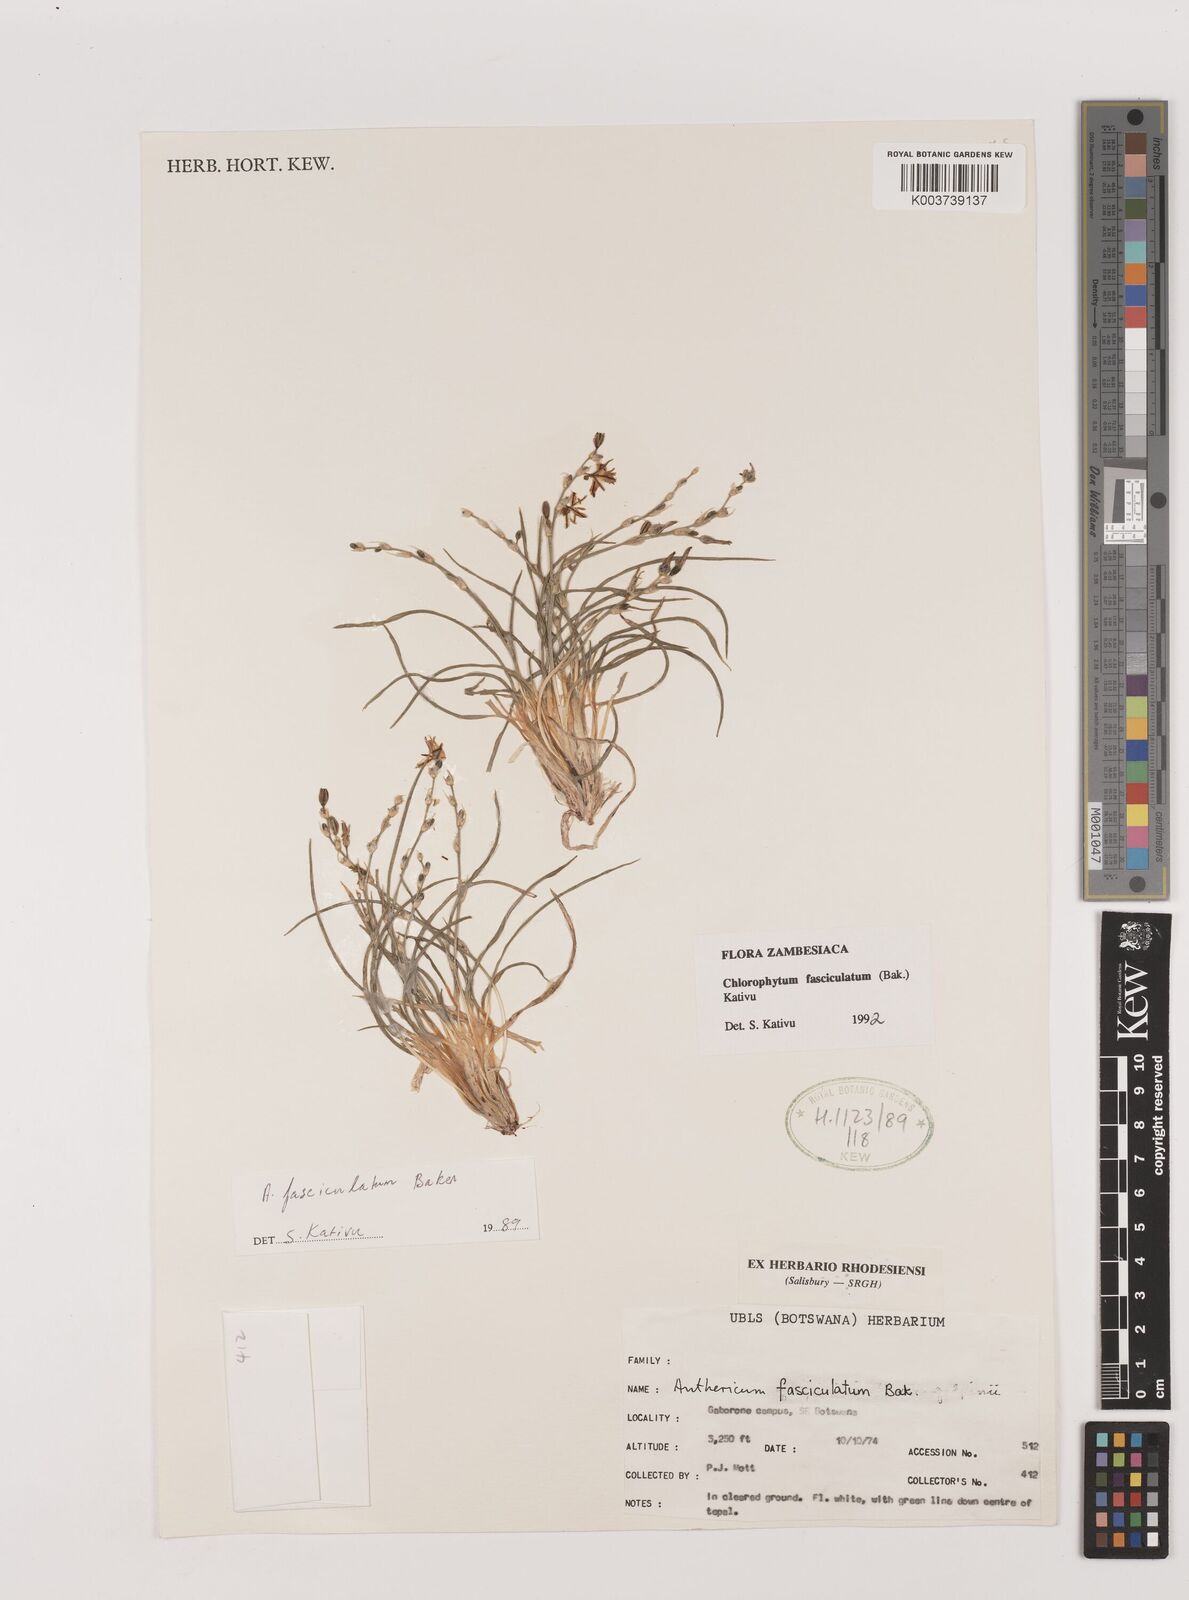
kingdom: Plantae
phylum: Tracheophyta
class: Liliopsida
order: Asparagales
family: Asparagaceae
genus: Chlorophytum
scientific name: Chlorophytum fasciculatum
